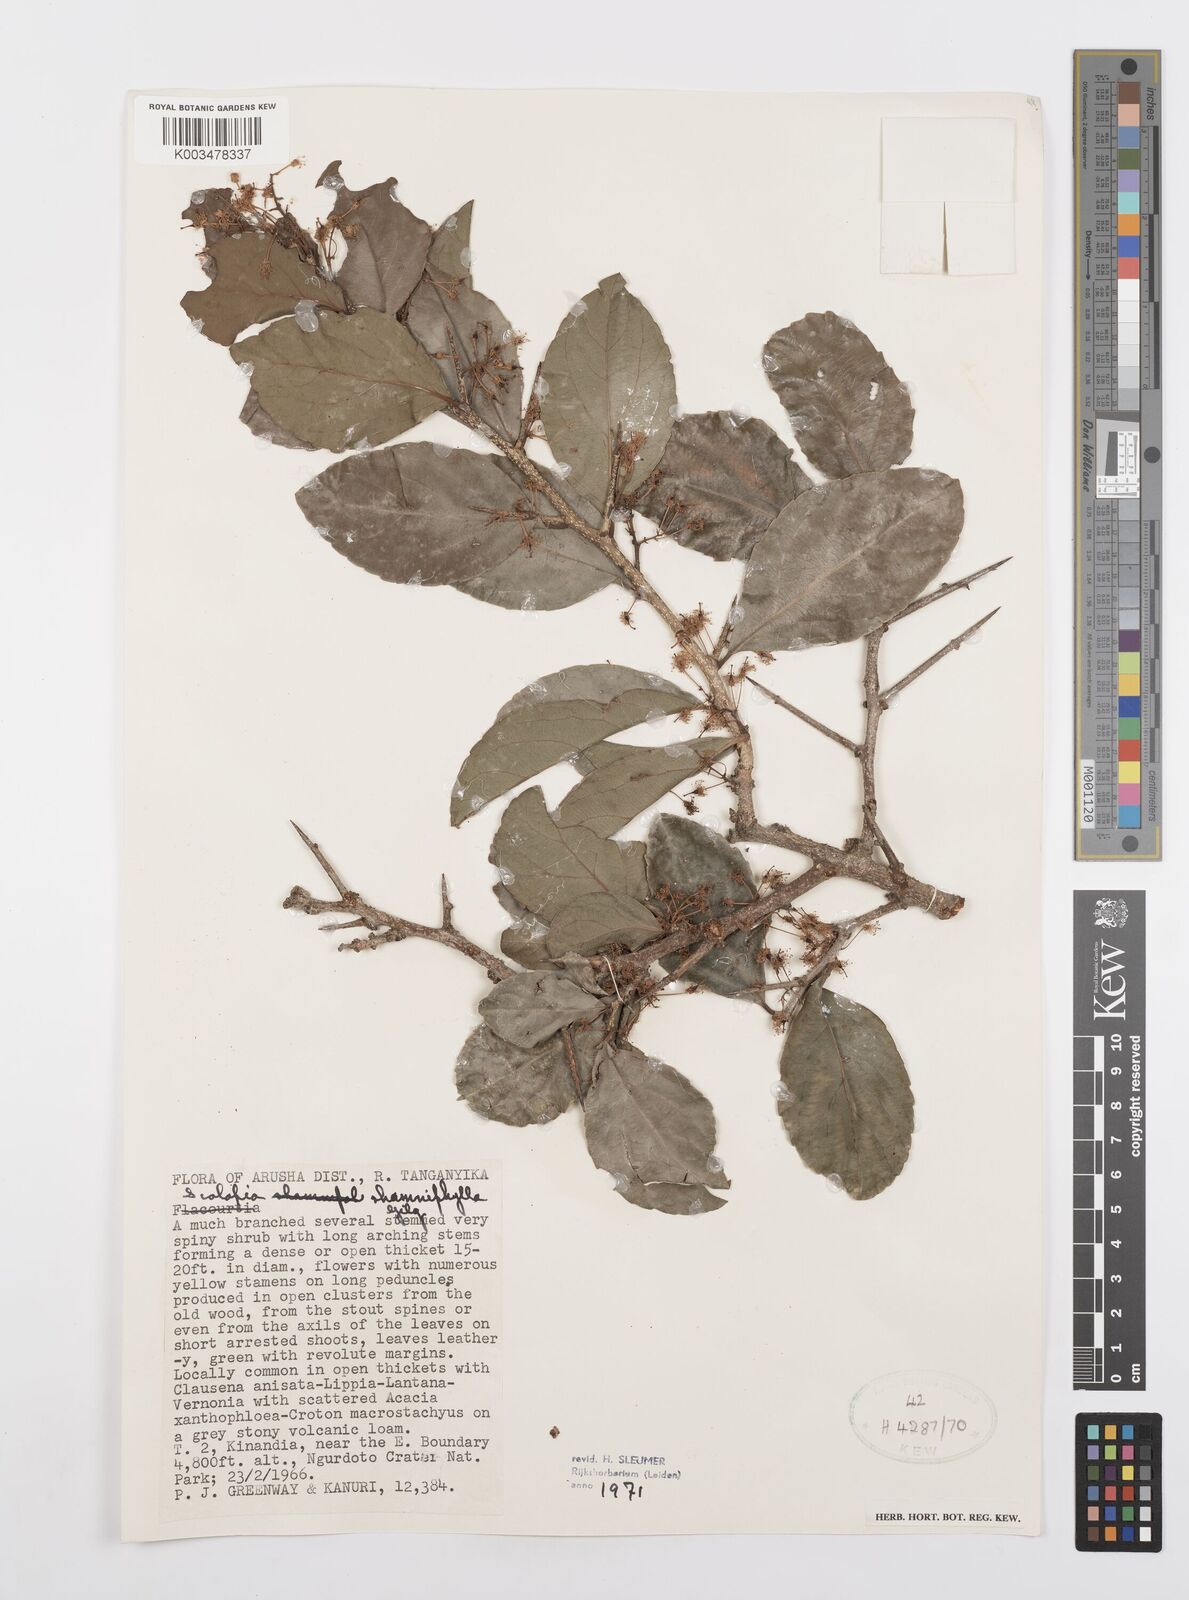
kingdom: Plantae
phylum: Tracheophyta
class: Magnoliopsida
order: Malpighiales
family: Salicaceae
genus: Scolopia
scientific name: Scolopia rhamniphylla
